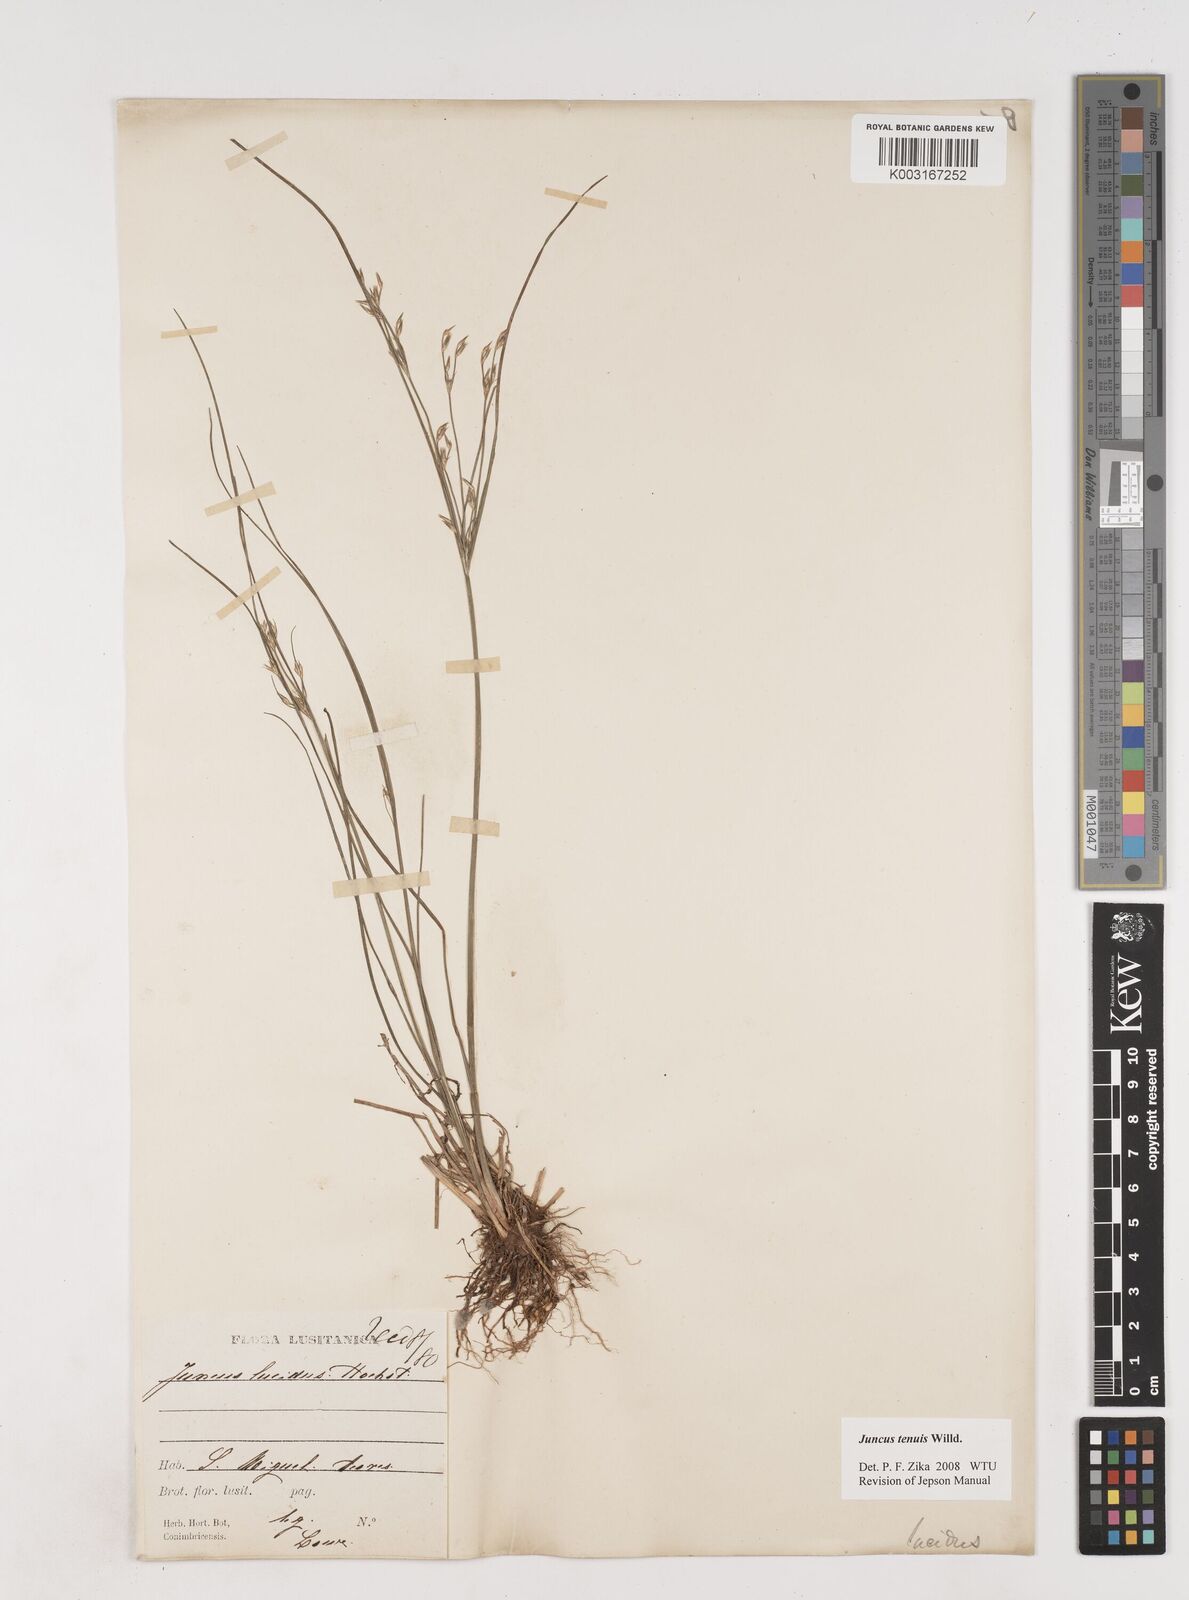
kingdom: Plantae
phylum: Tracheophyta
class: Liliopsida
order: Poales
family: Juncaceae
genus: Juncus
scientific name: Juncus tenuis
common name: Slender rush
